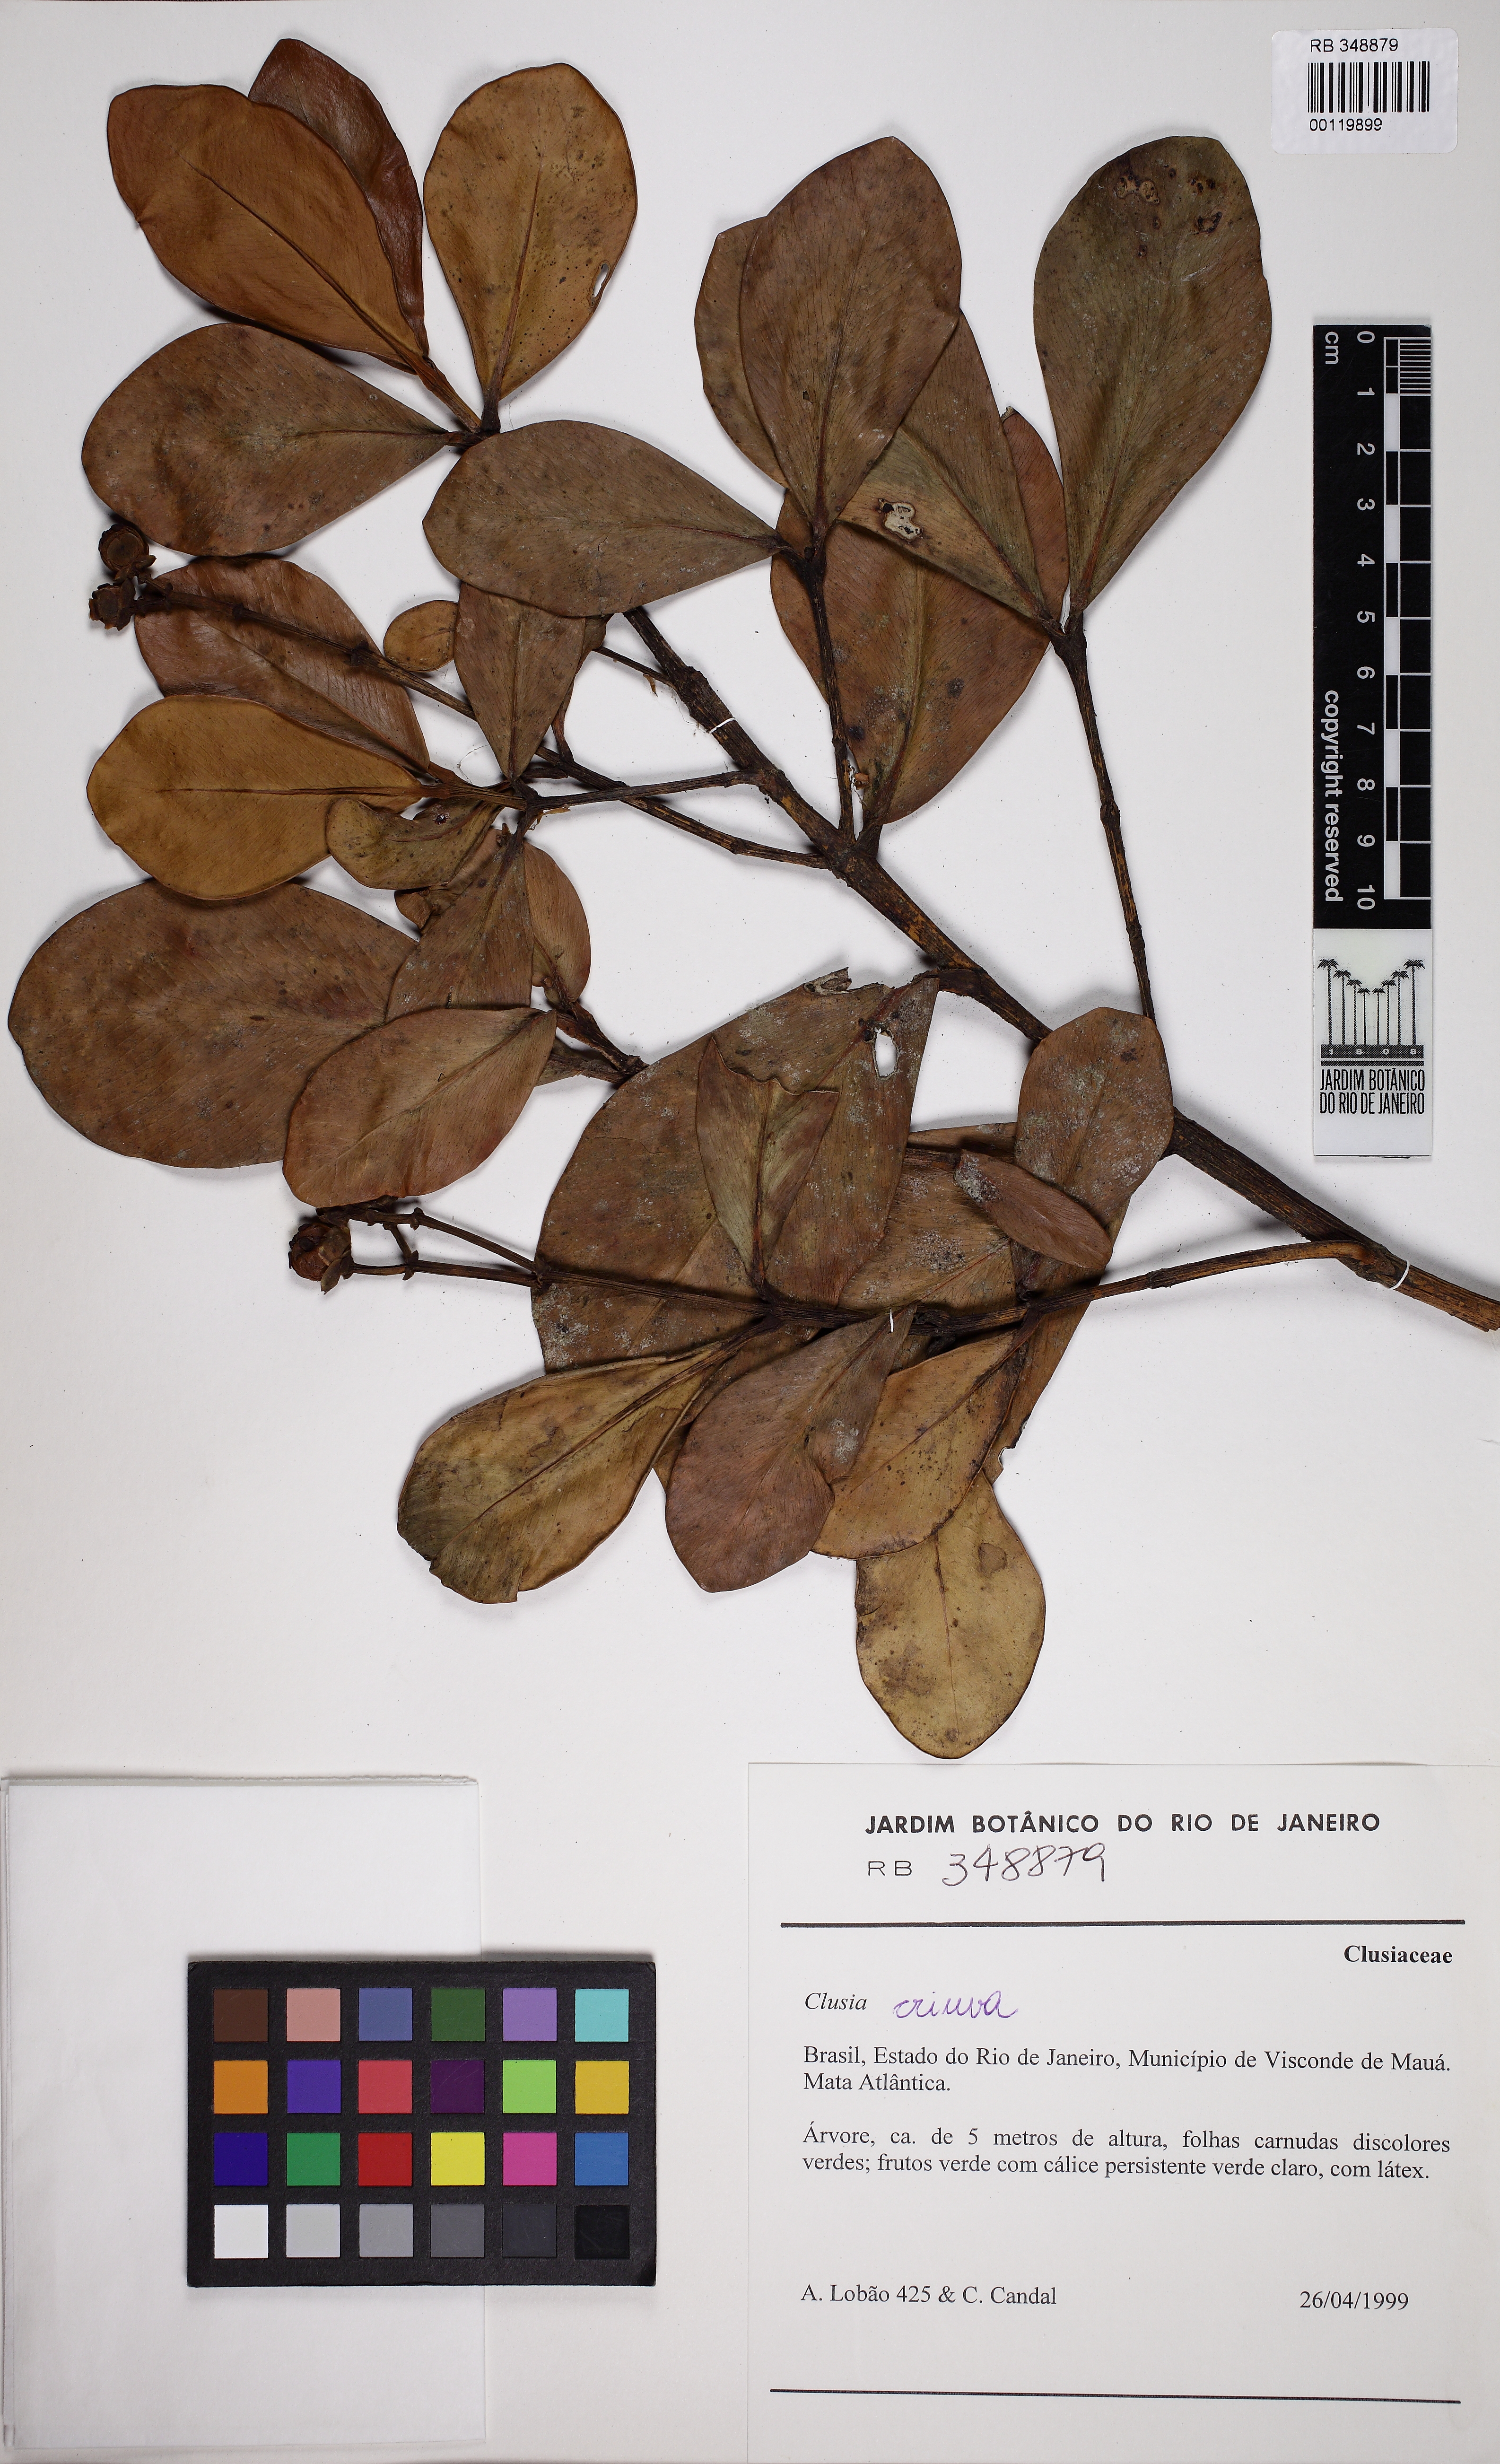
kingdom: Plantae
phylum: Tracheophyta
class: Magnoliopsida
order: Malpighiales
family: Clusiaceae
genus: Clusia
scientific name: Clusia criuva
